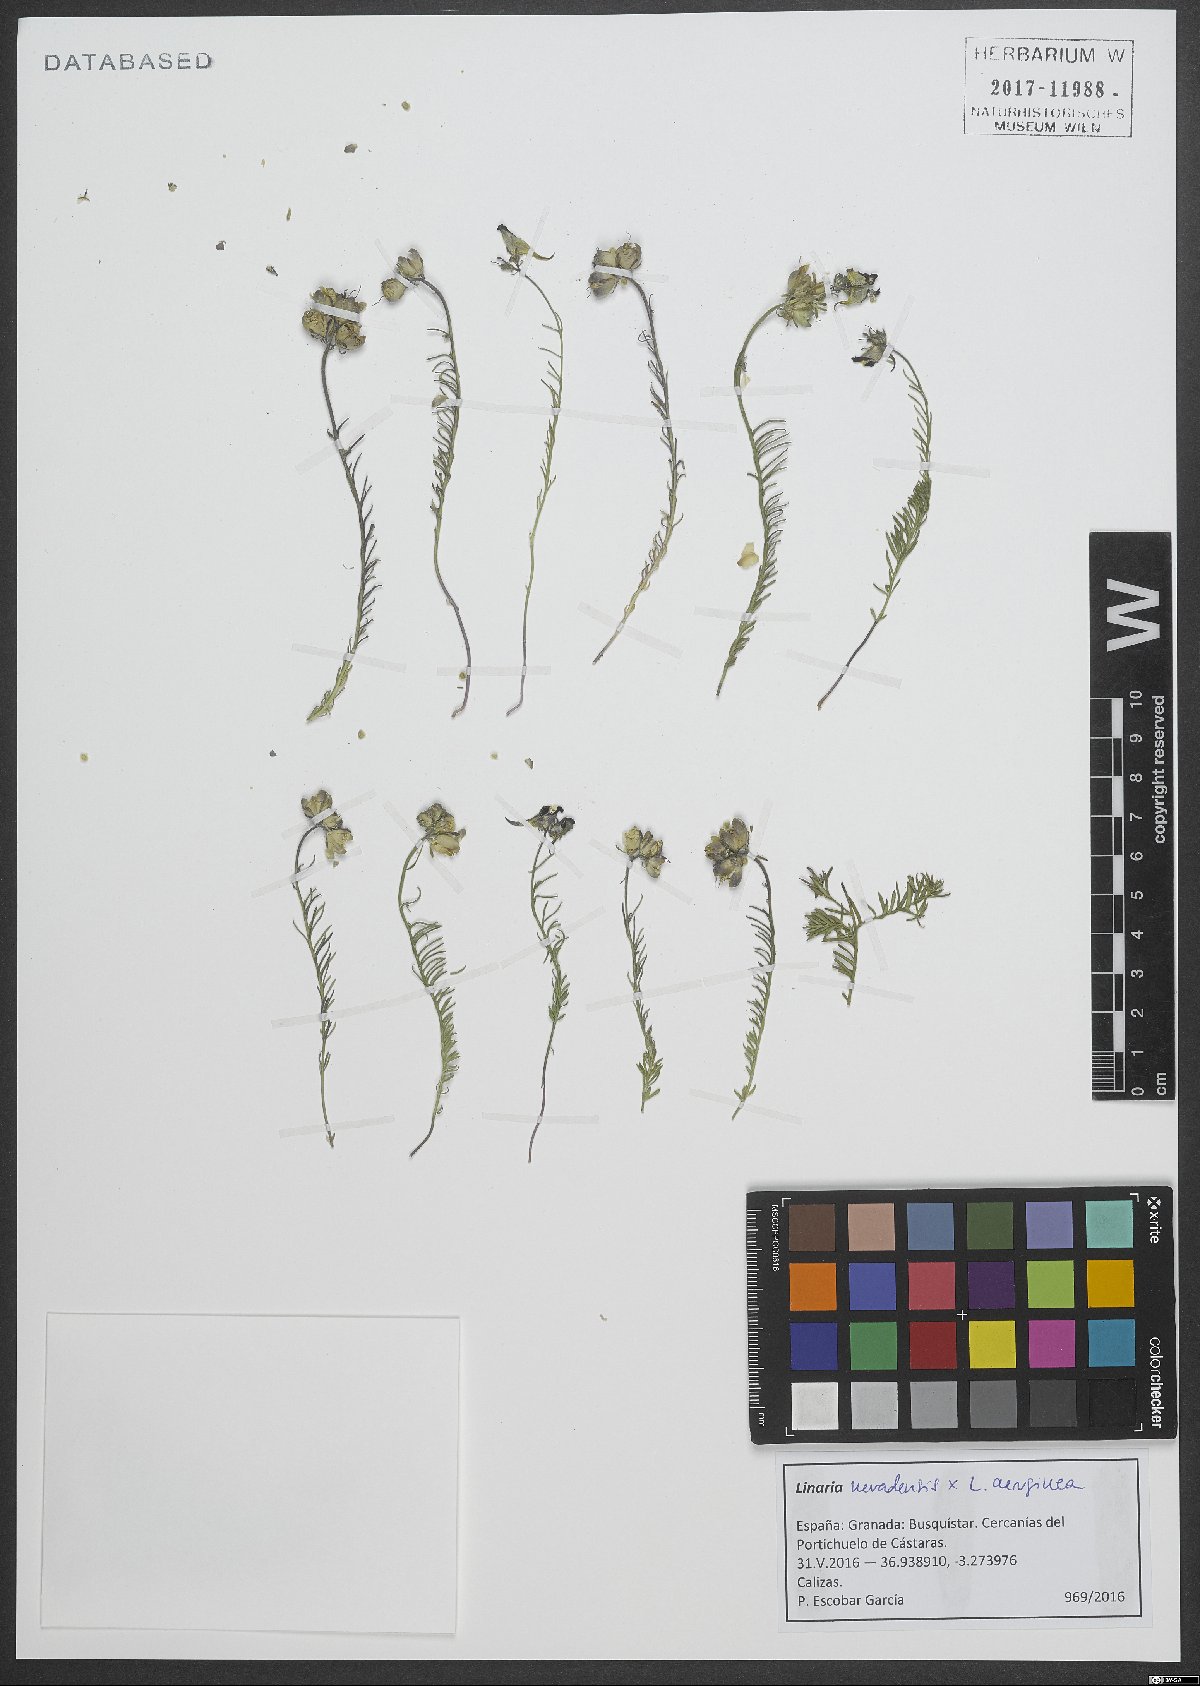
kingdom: Plantae
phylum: Tracheophyta
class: Magnoliopsida
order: Lamiales
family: Scrophulariaceae
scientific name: Scrophulariaceae
